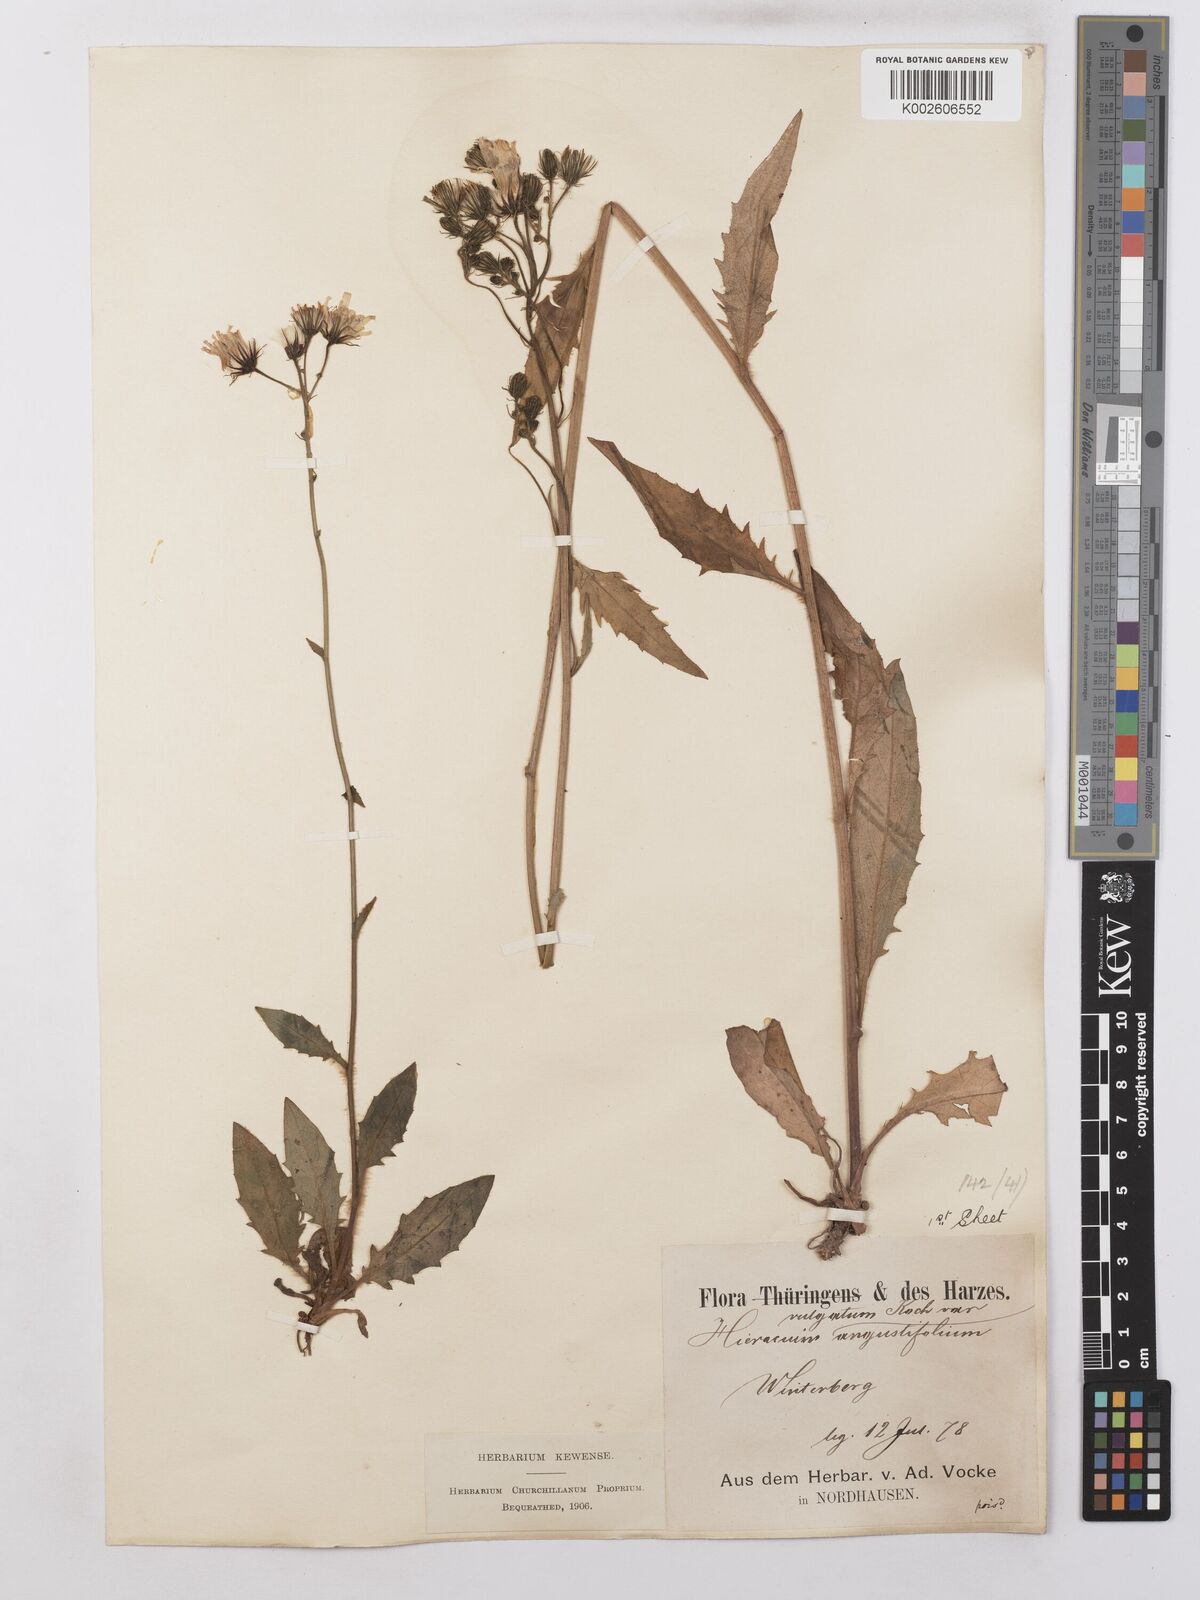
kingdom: Plantae
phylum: Tracheophyta
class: Magnoliopsida
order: Asterales
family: Asteraceae
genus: Hieracium
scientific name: Hieracium lachenalii
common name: Common hawkweed
